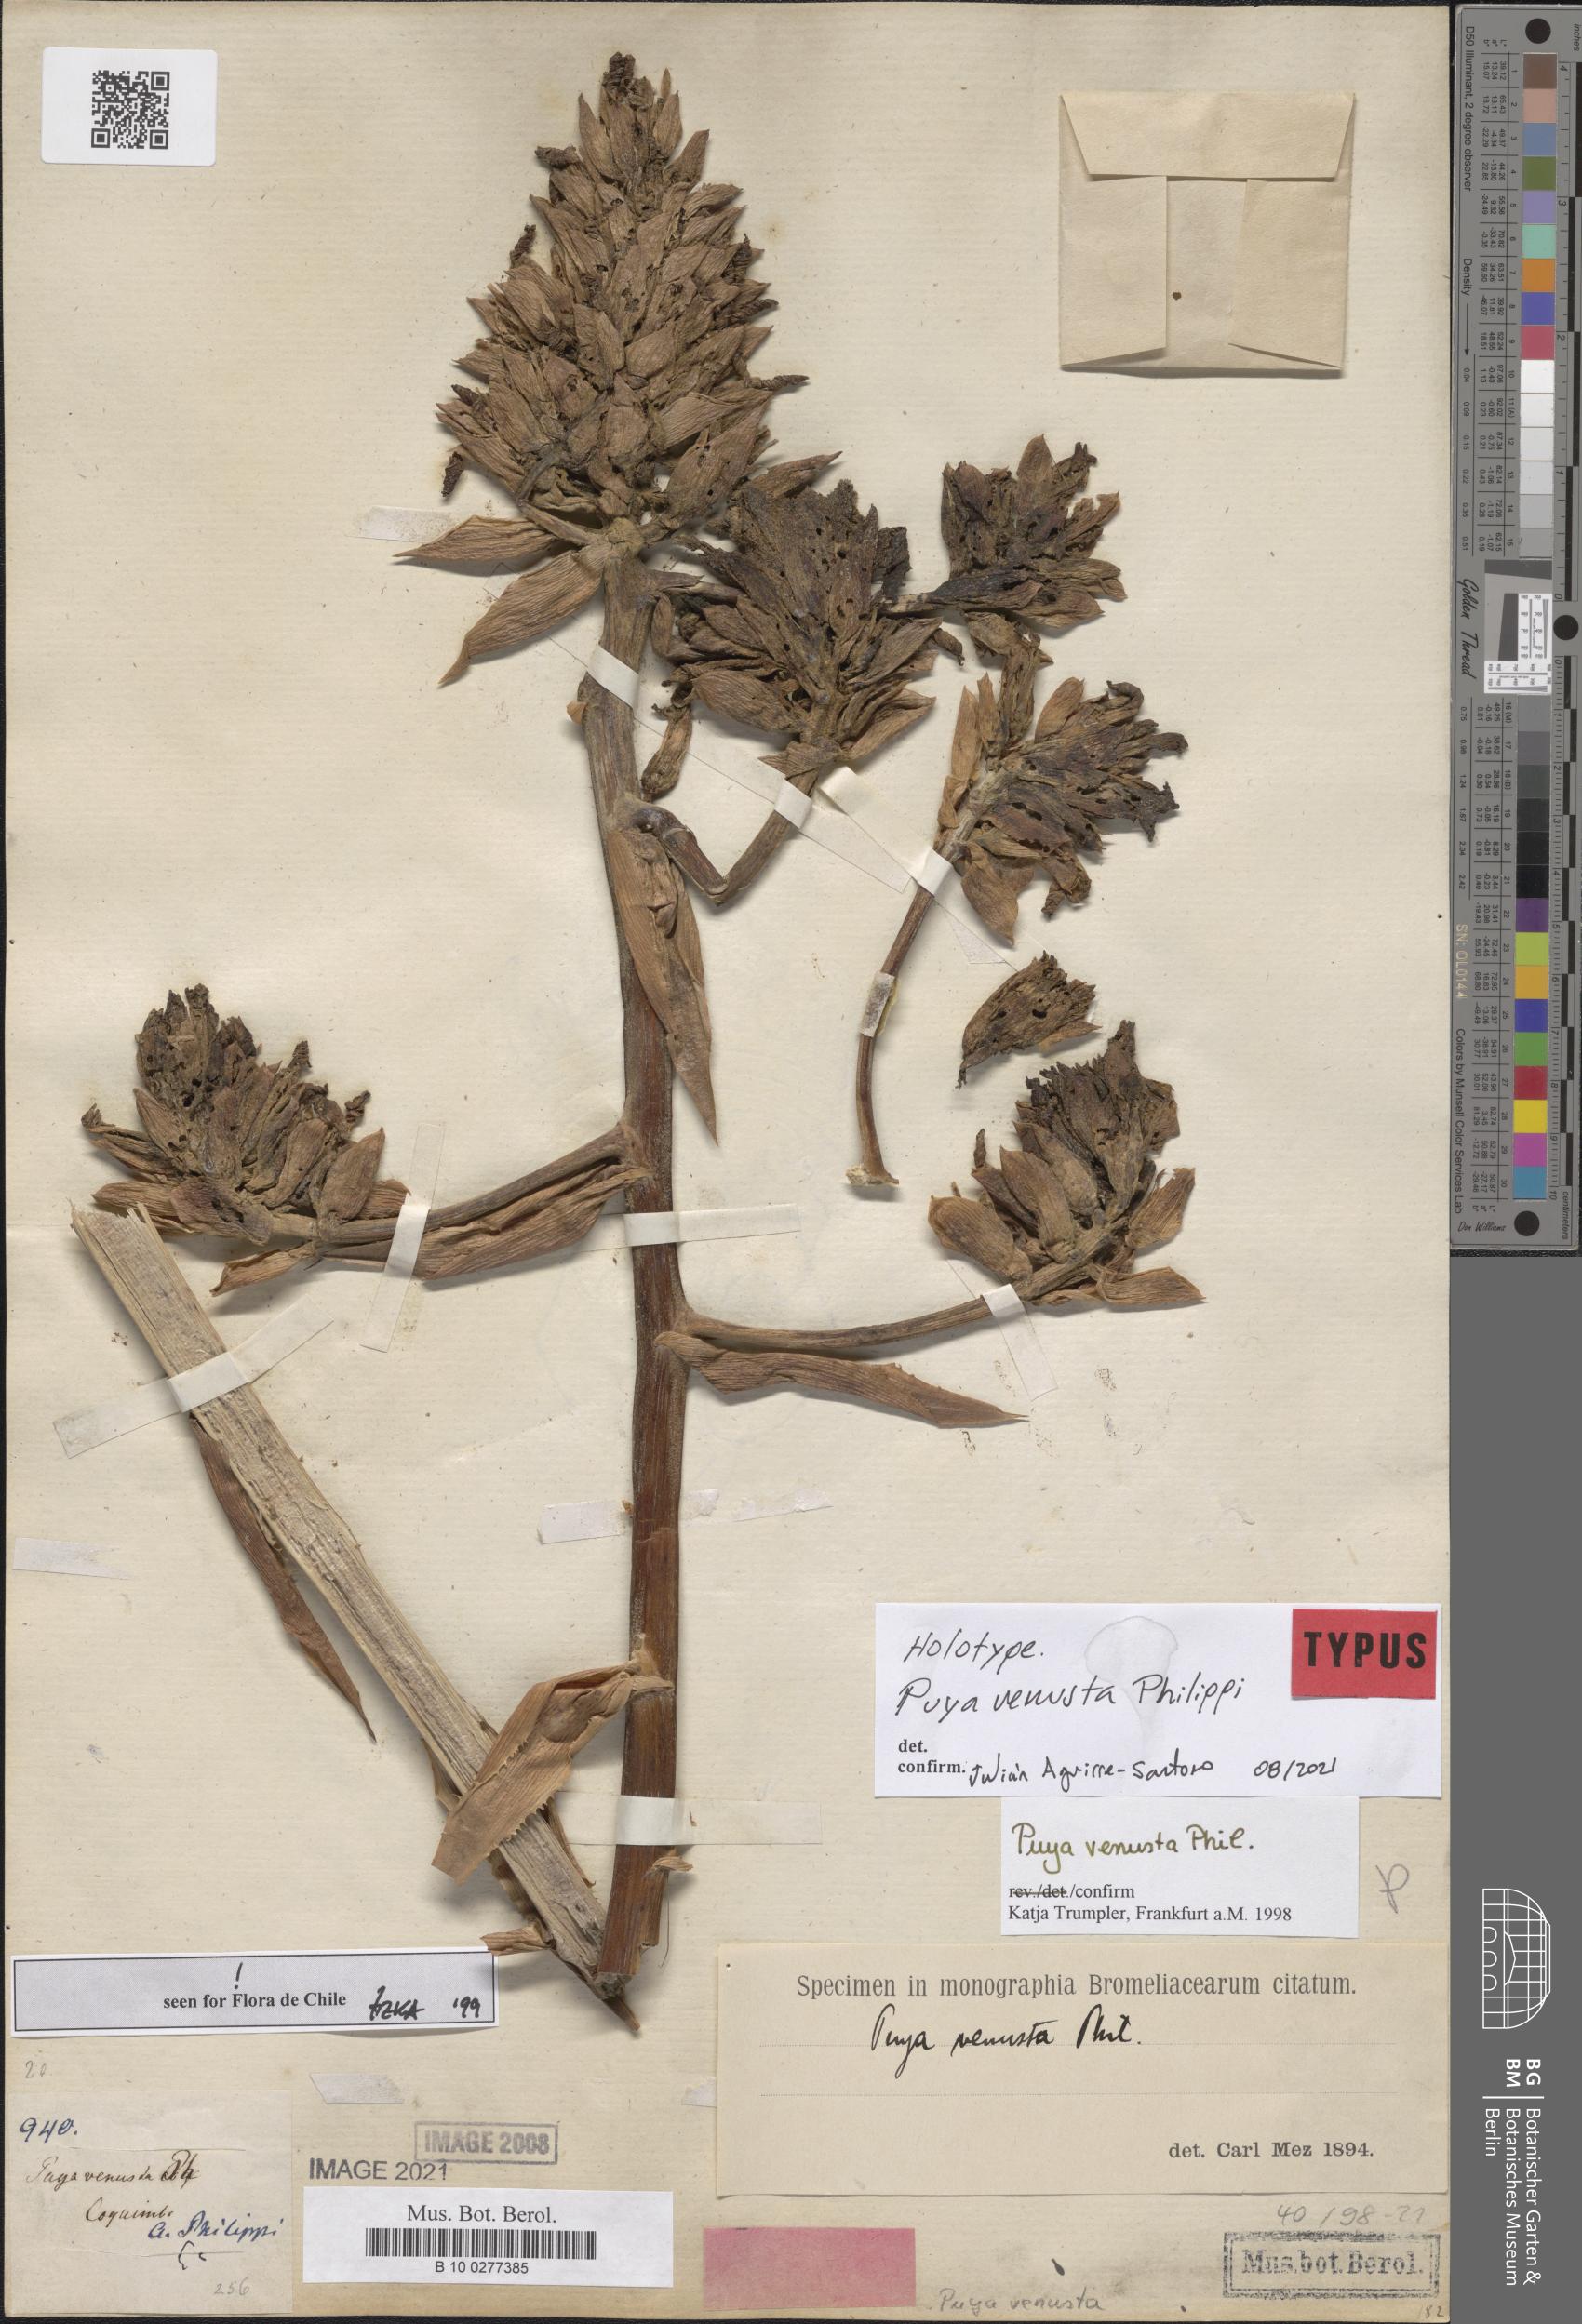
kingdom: Plantae
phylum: Tracheophyta
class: Liliopsida
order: Poales
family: Bromeliaceae
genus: Puya
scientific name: Puya venusta
